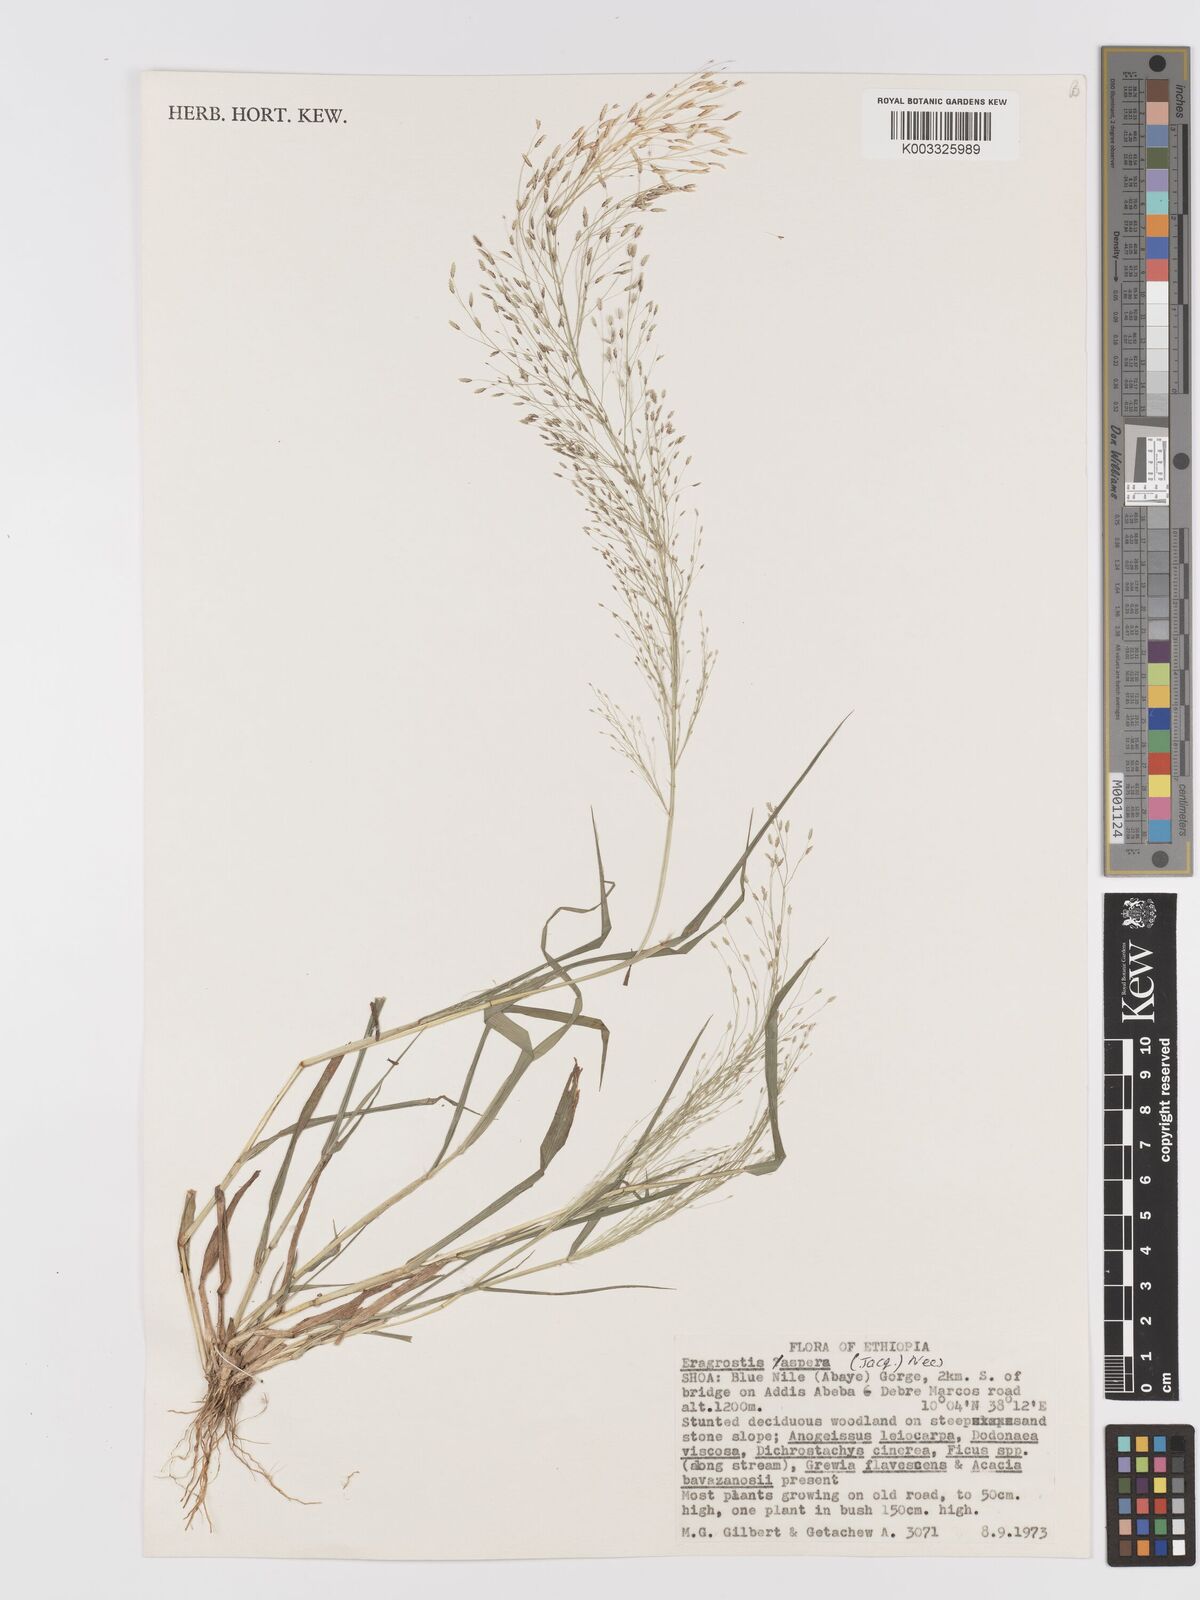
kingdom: Plantae
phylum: Tracheophyta
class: Liliopsida
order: Poales
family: Poaceae
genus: Eragrostis
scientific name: Eragrostis aspera
